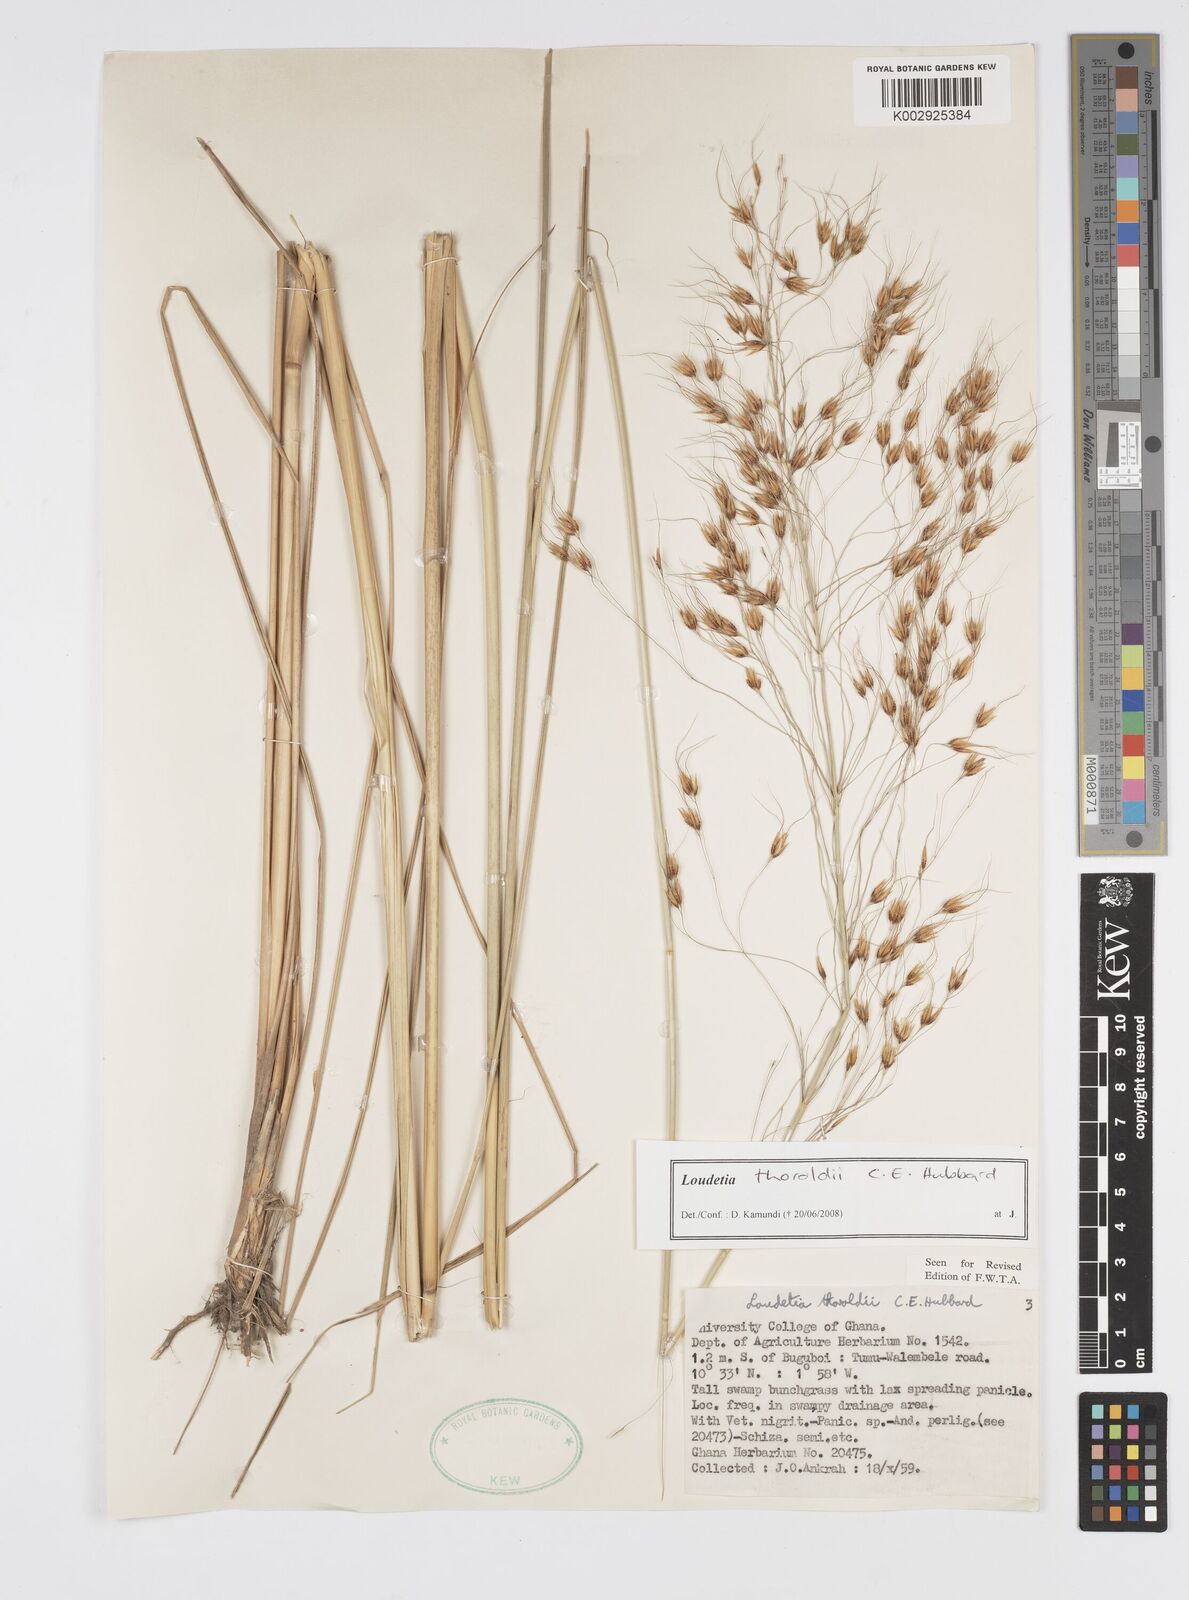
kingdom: Plantae
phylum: Tracheophyta
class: Liliopsida
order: Poales
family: Poaceae
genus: Loudetiopsis
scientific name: Loudetiopsis thoroldii
